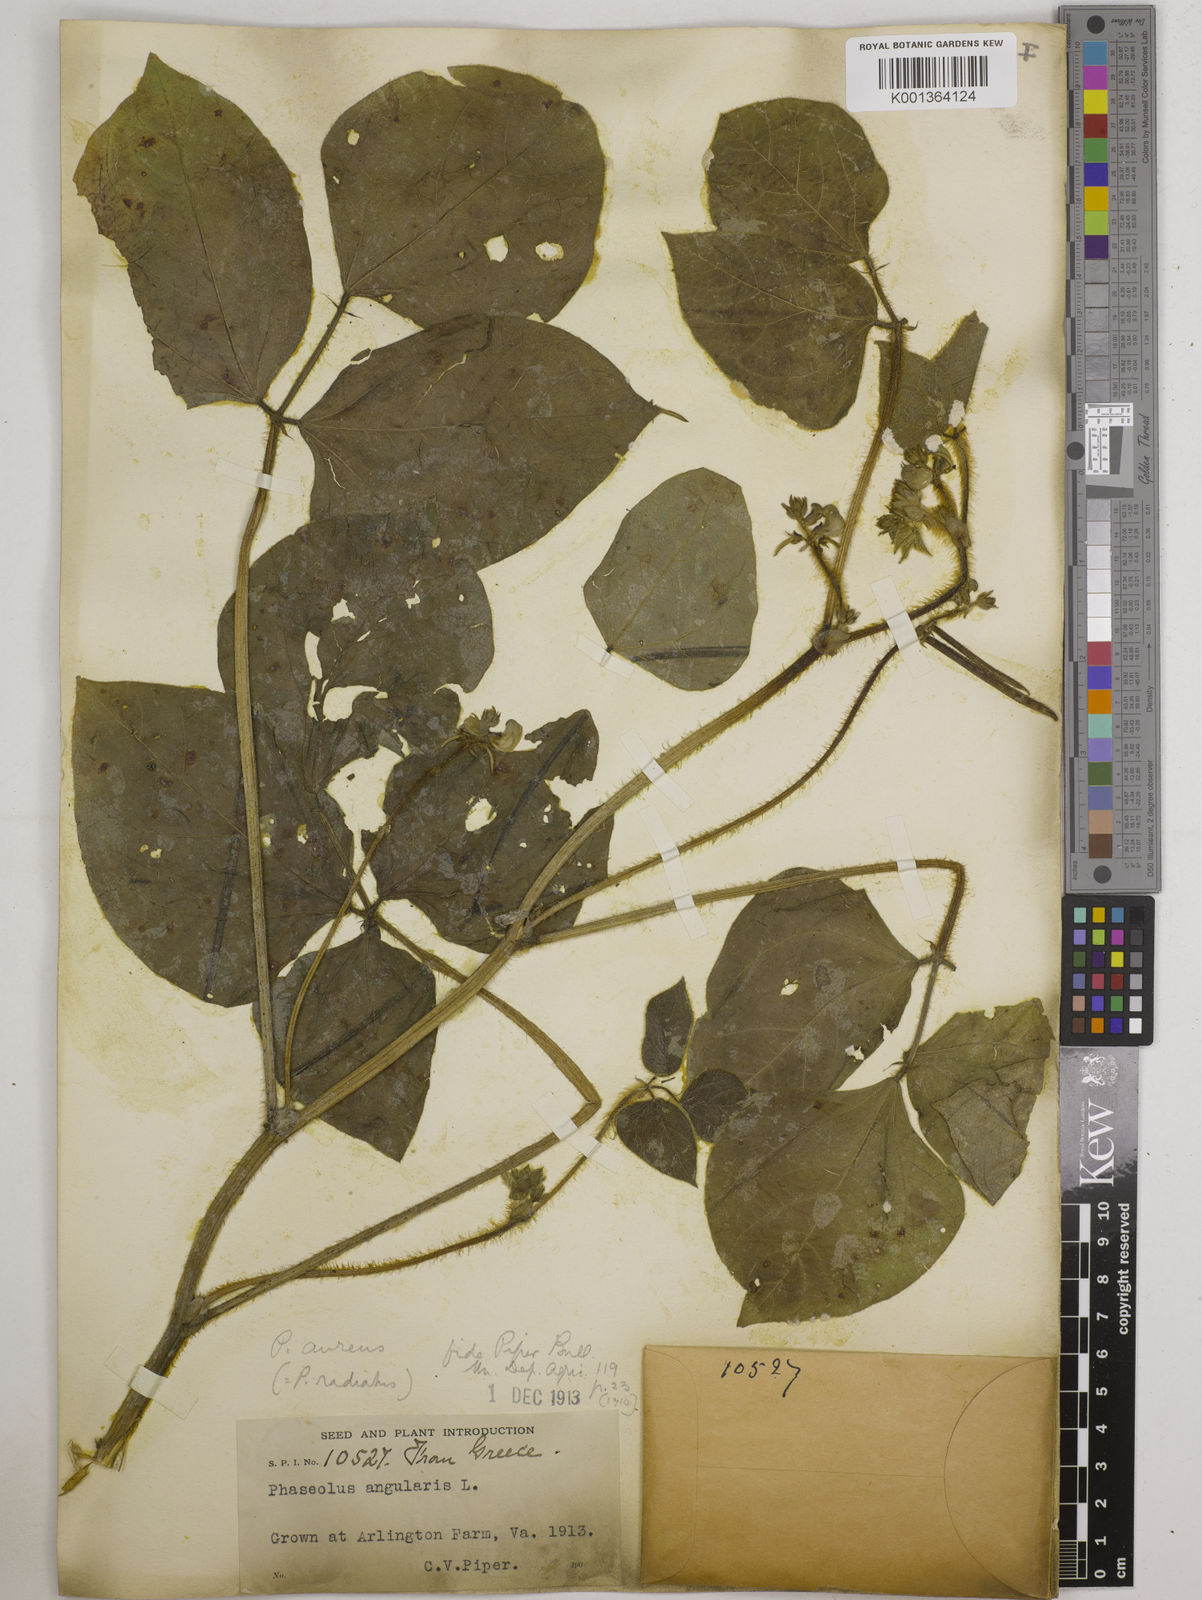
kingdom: Plantae
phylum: Tracheophyta
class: Magnoliopsida
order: Fabales
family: Fabaceae
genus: Vigna
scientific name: Vigna radiata
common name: Mung-bean
